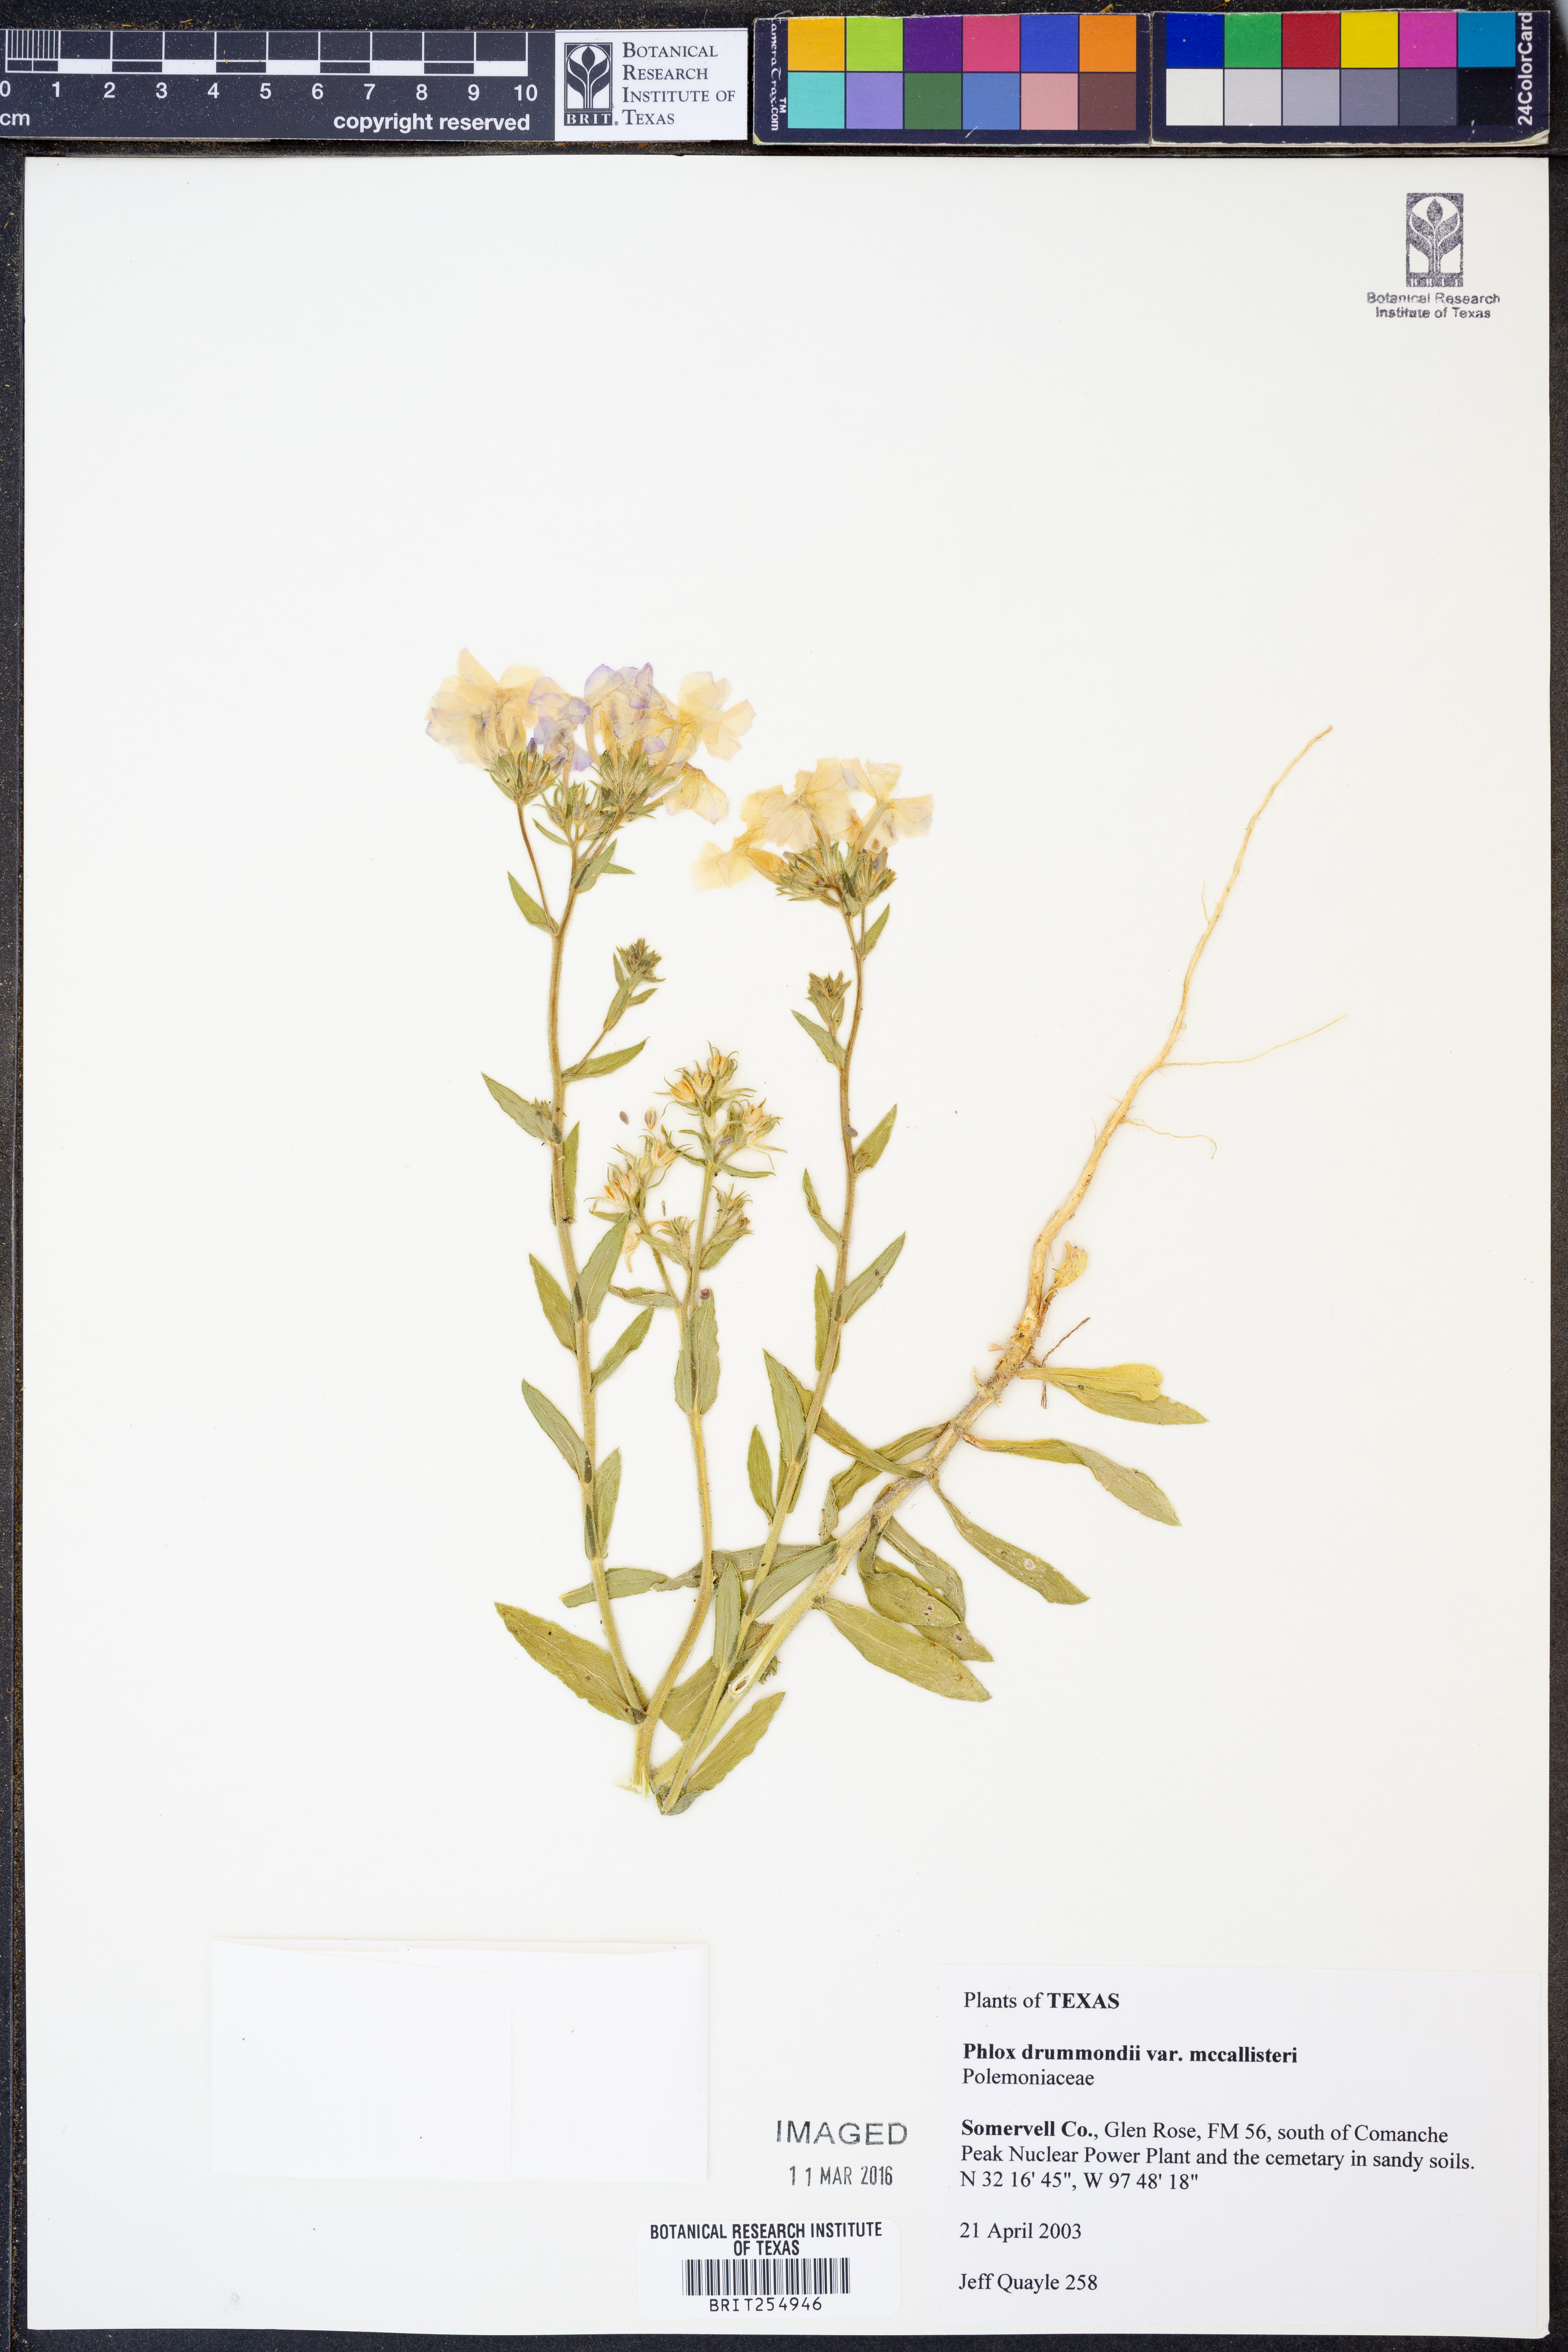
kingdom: Plantae
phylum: Tracheophyta
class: Magnoliopsida
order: Ericales
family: Polemoniaceae
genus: Phlox
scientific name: Phlox drummondii
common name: Drummond's phlox
